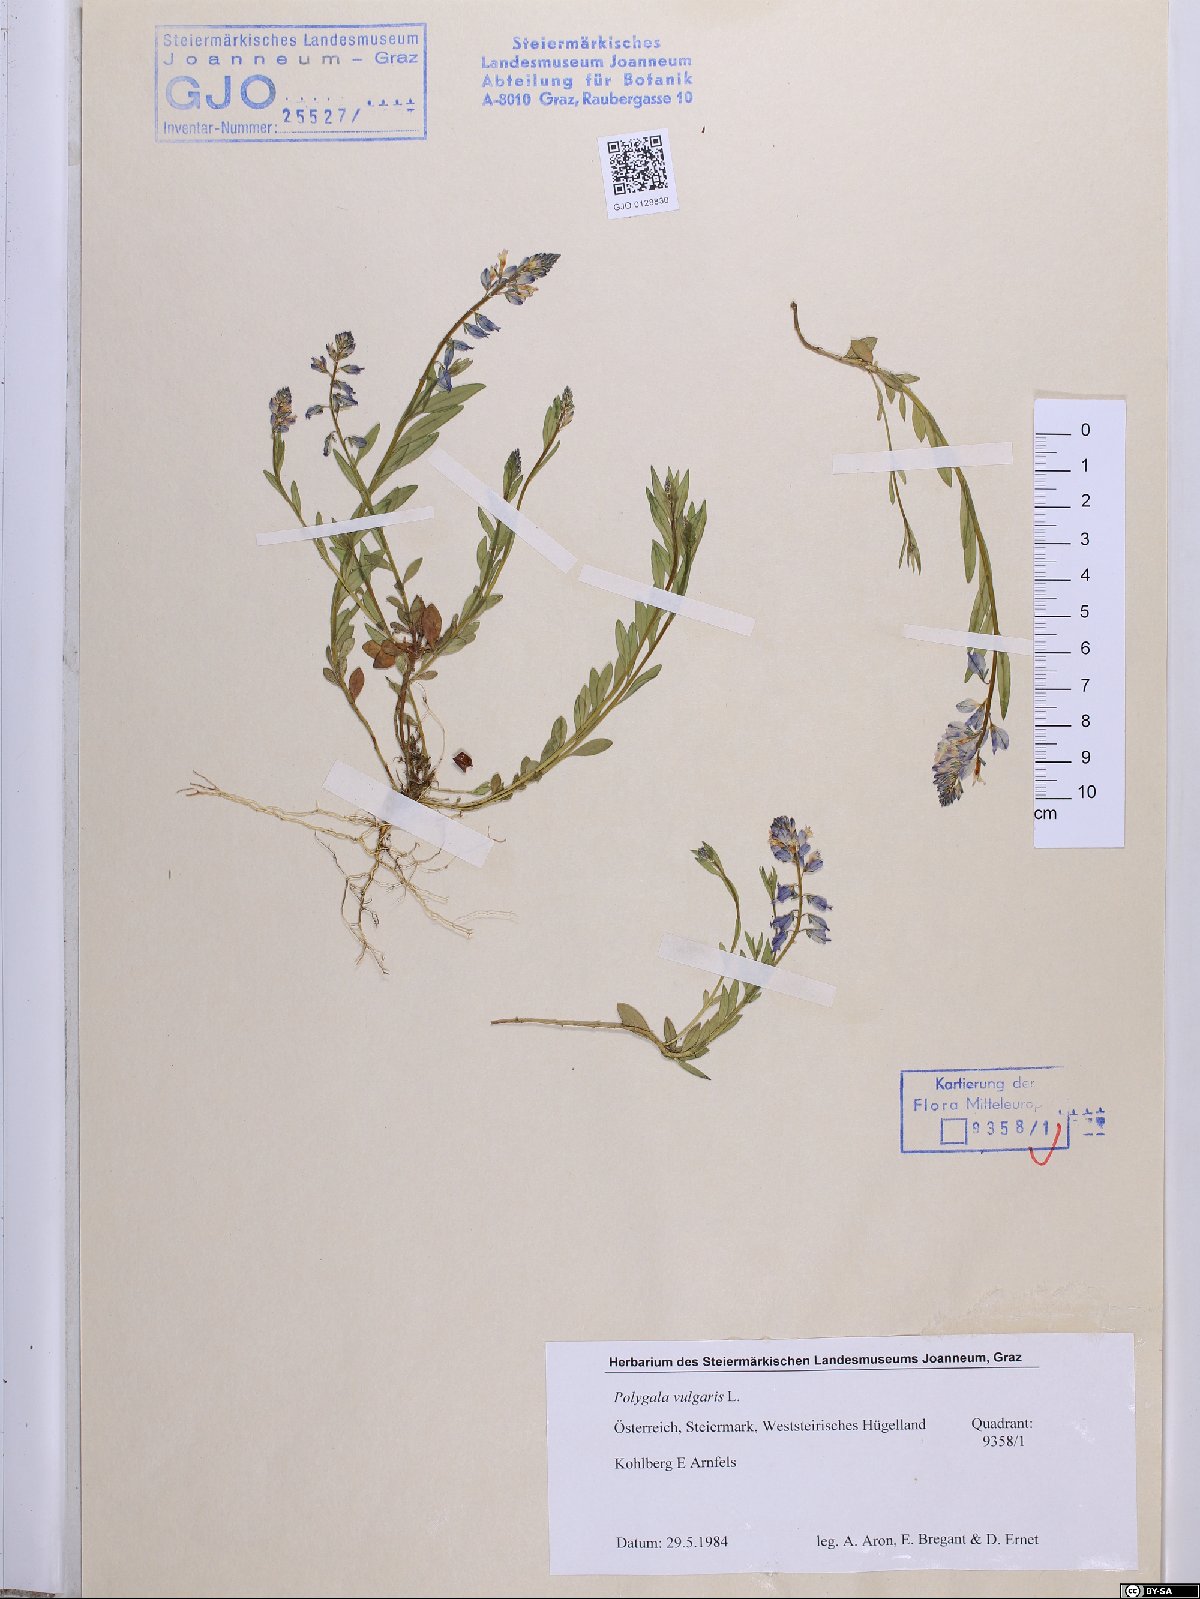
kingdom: Plantae
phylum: Tracheophyta
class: Magnoliopsida
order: Fabales
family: Polygalaceae
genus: Polygala
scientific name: Polygala vulgaris
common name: Common milkwort
